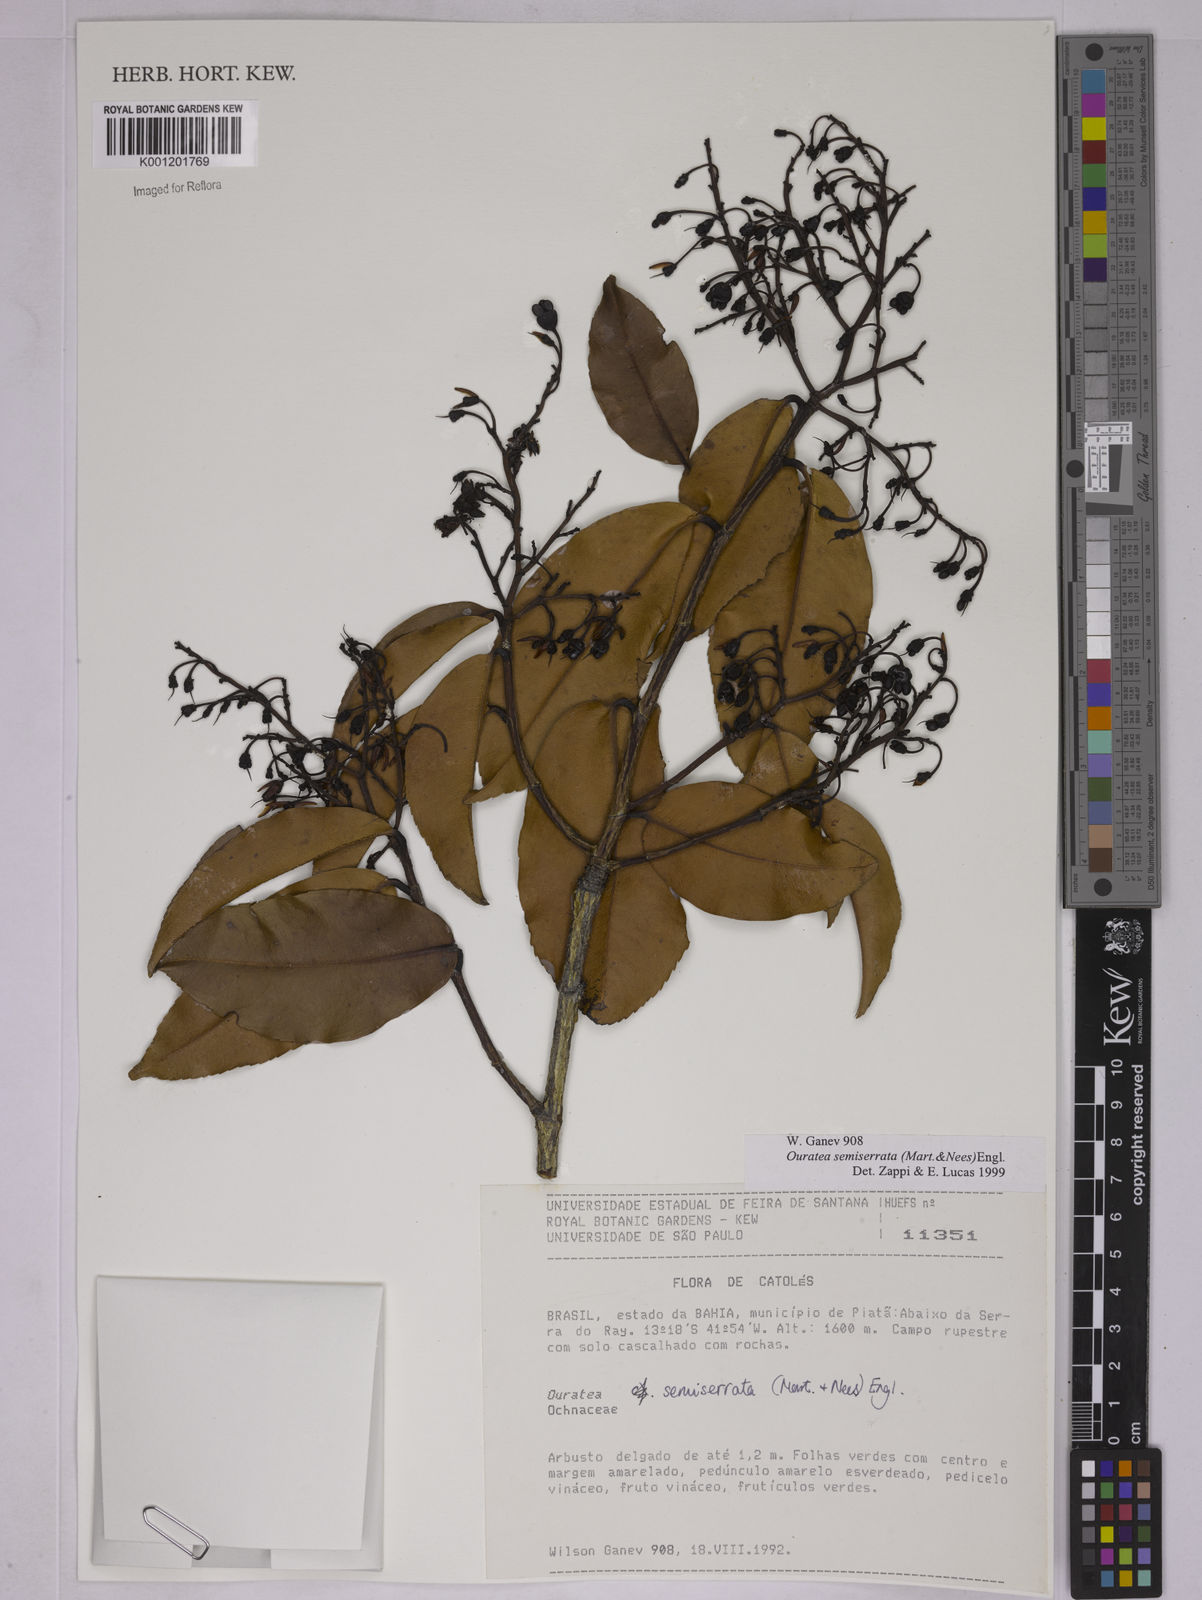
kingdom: Plantae
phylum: Tracheophyta
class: Magnoliopsida
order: Malpighiales
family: Ochnaceae
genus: Ouratea
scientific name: Ouratea semiserrata
